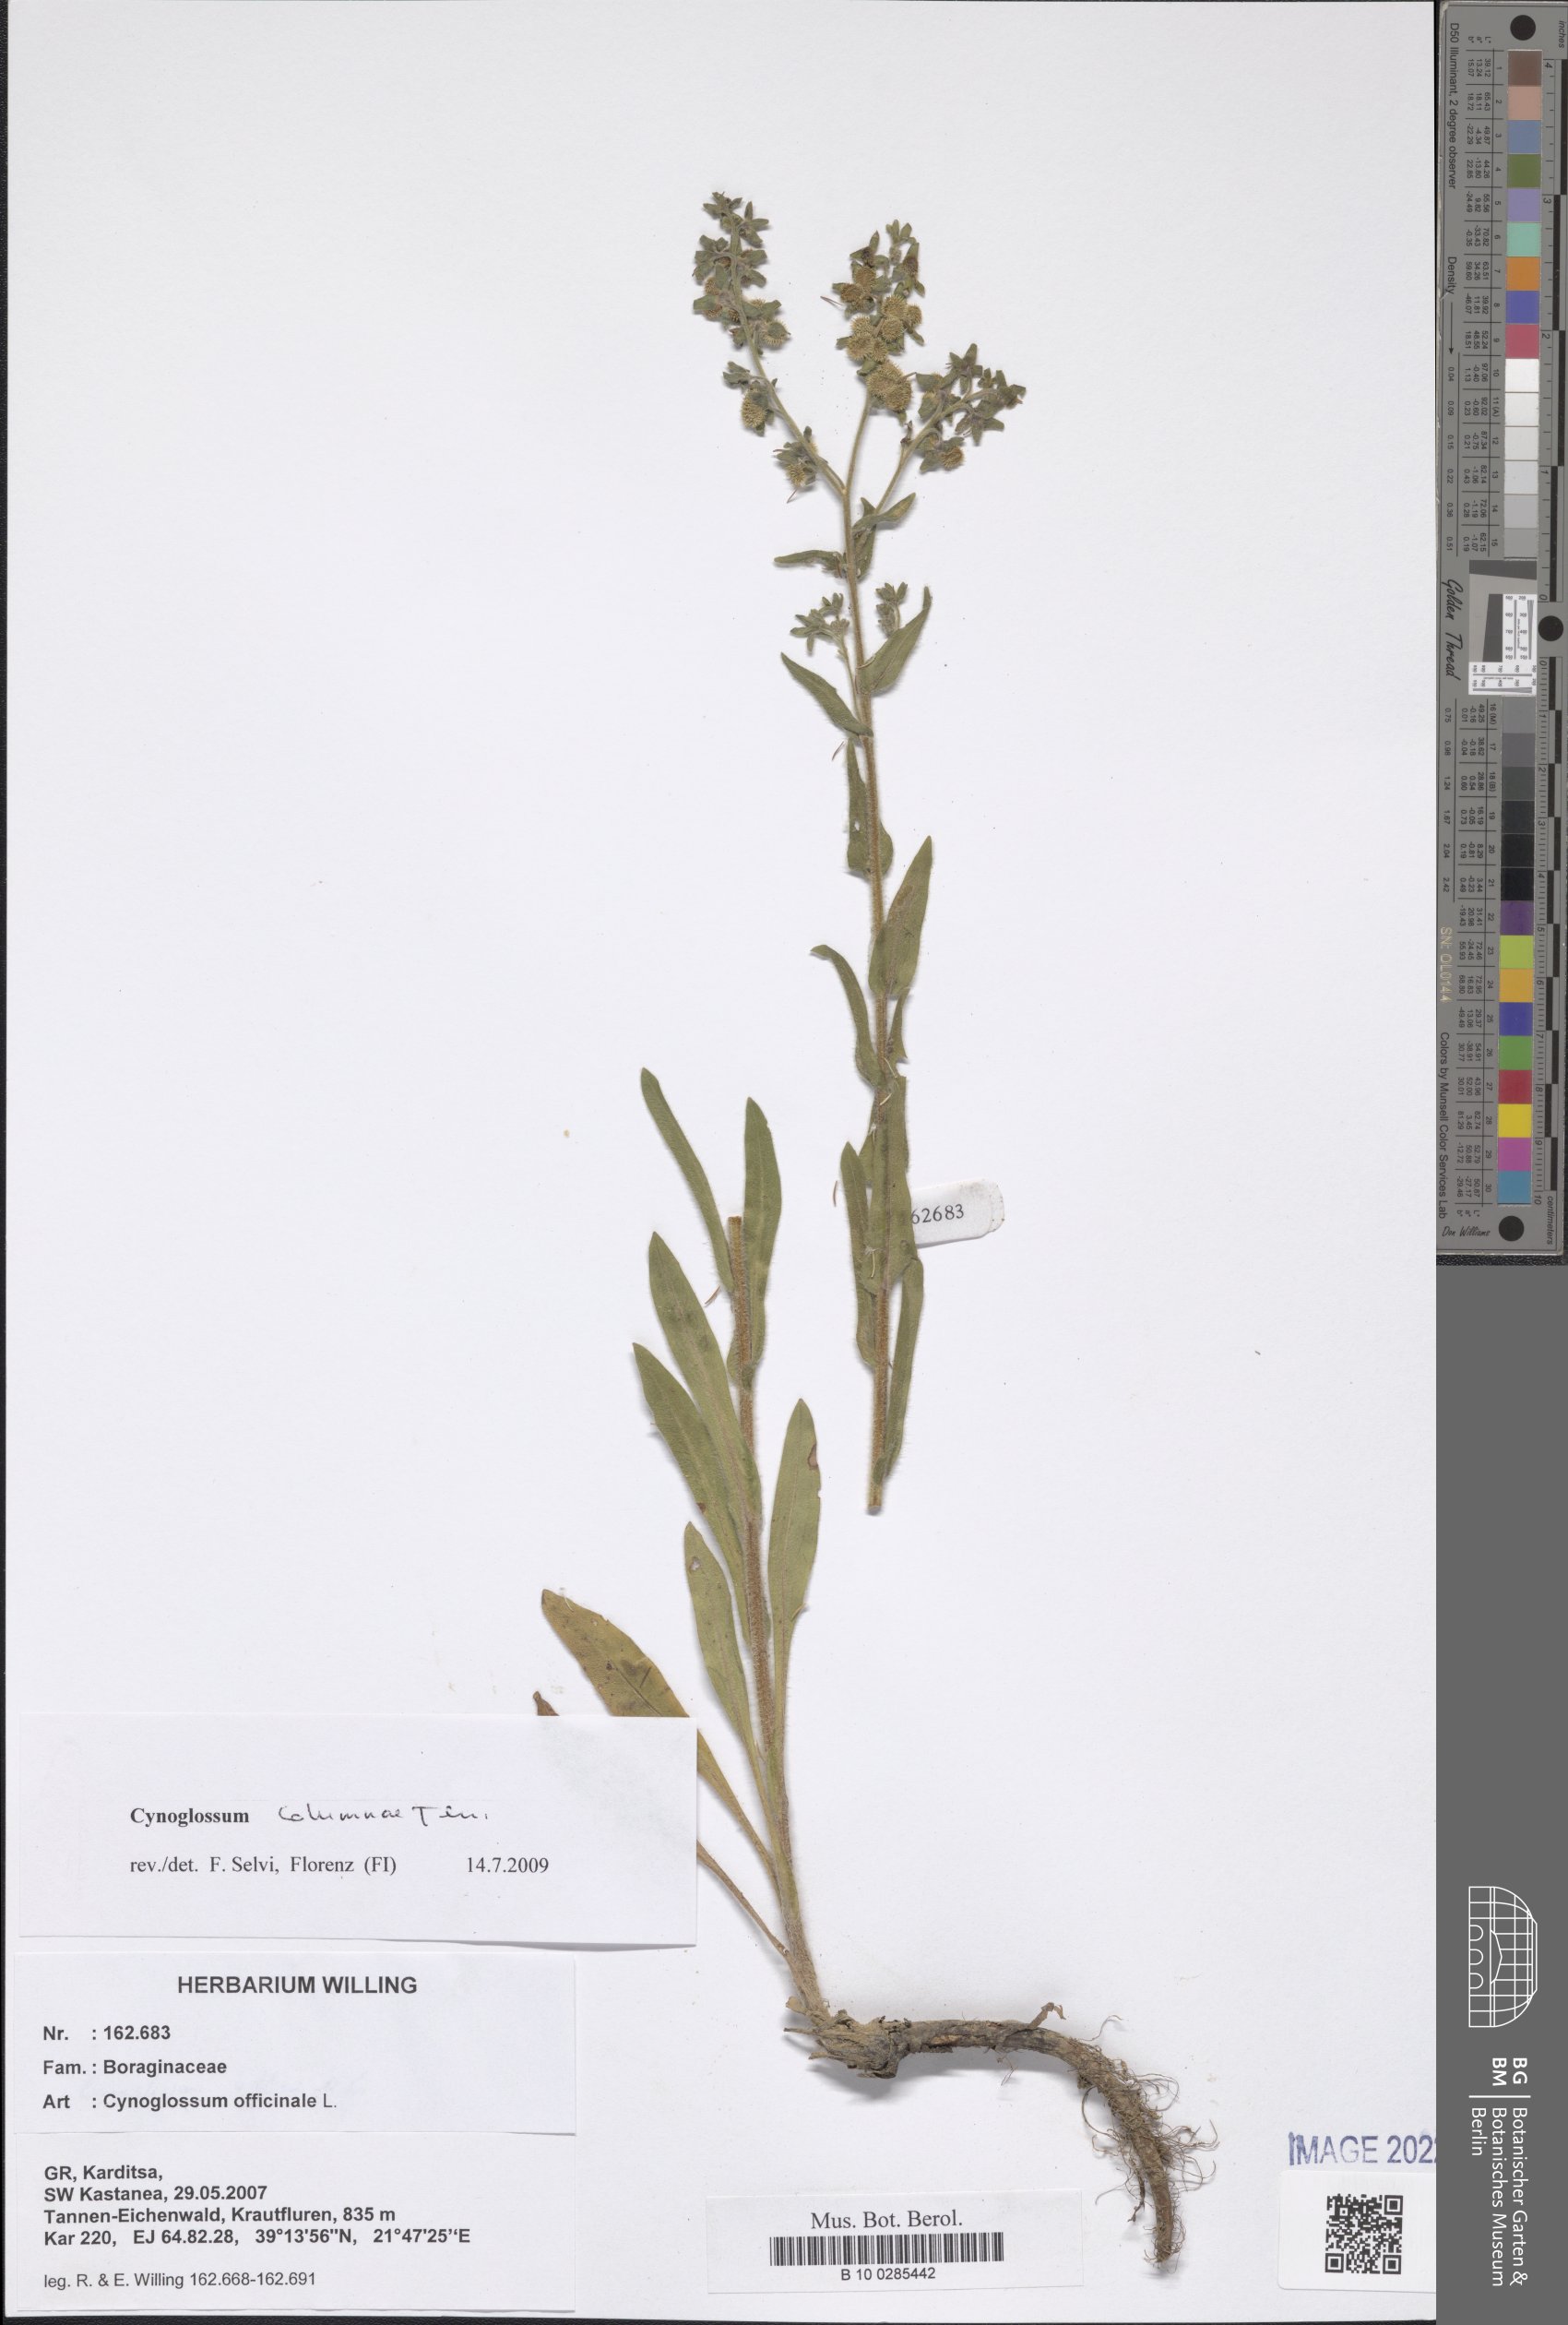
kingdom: Plantae
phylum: Tracheophyta
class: Magnoliopsida
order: Boraginales
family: Boraginaceae
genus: Rindera
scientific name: Rindera columnae
